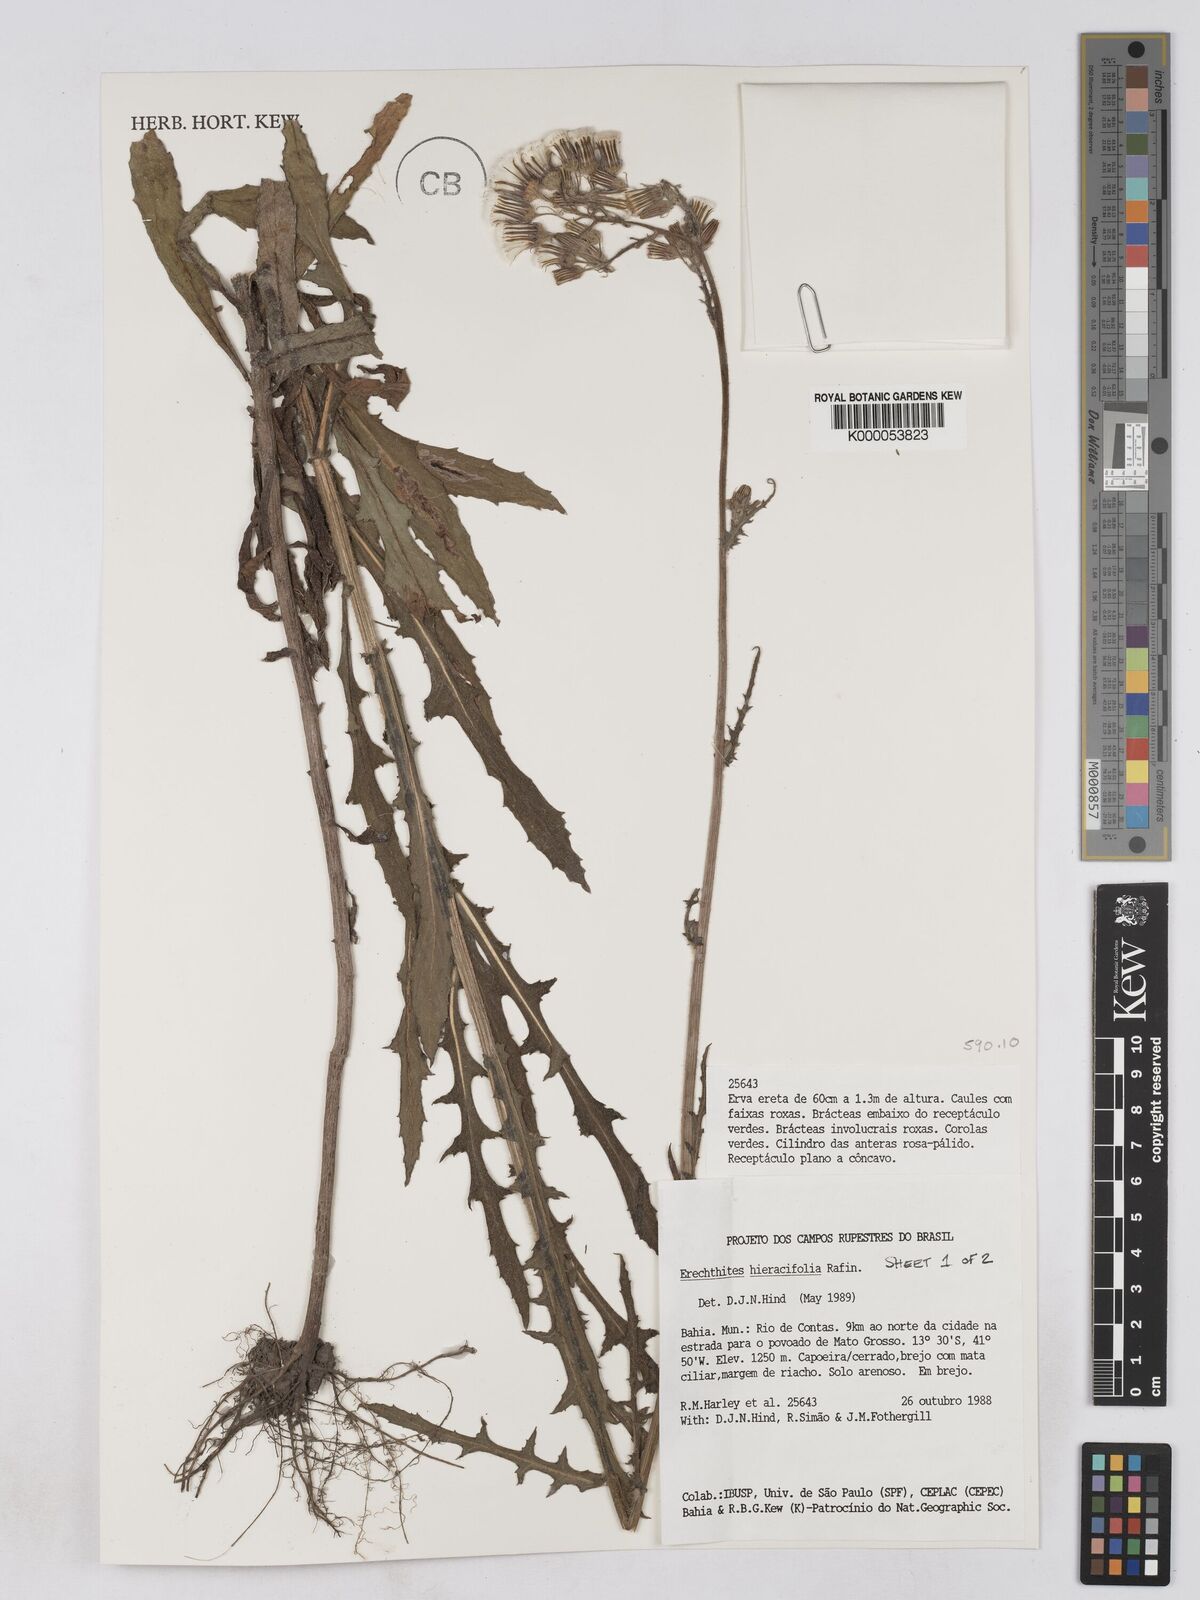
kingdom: Plantae
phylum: Tracheophyta
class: Magnoliopsida
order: Asterales
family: Asteraceae
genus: Erechtites
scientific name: Erechtites hieraciifolius
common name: American burnweed
